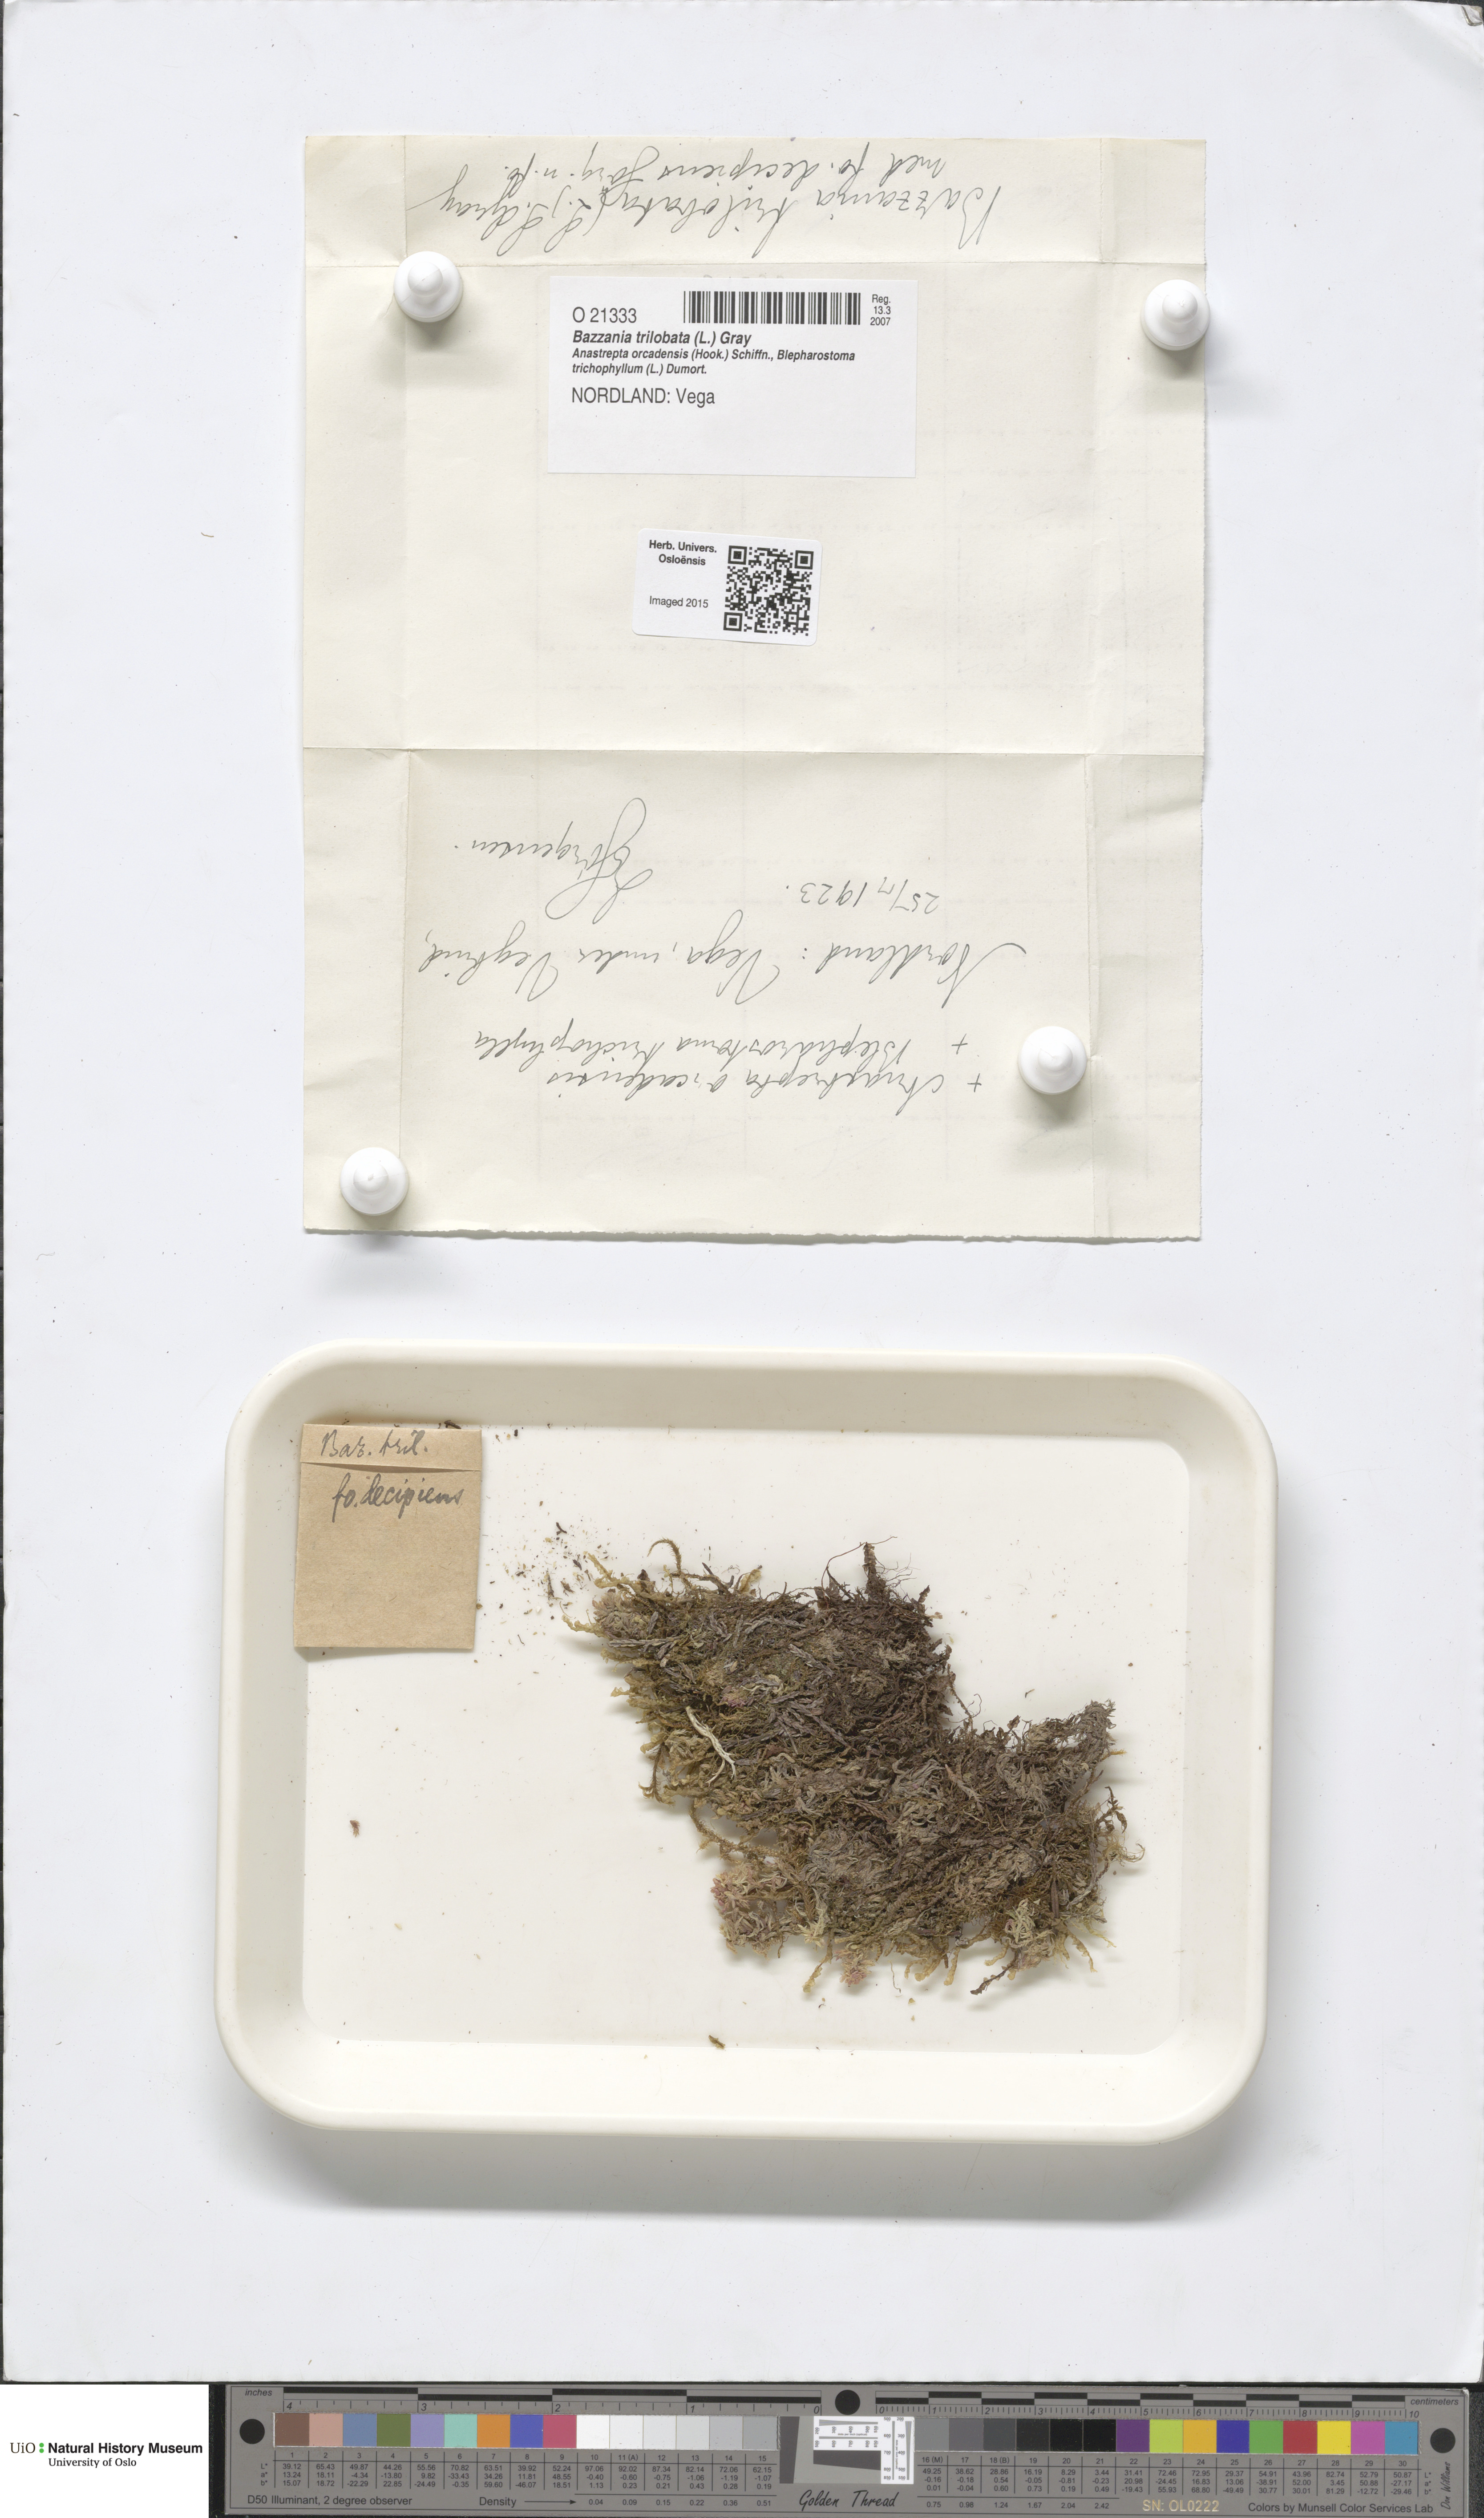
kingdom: Plantae
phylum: Marchantiophyta
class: Jungermanniopsida
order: Jungermanniales
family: Lepidoziaceae
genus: Bazzania
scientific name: Bazzania trilobata
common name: Three-lobed whipwort
